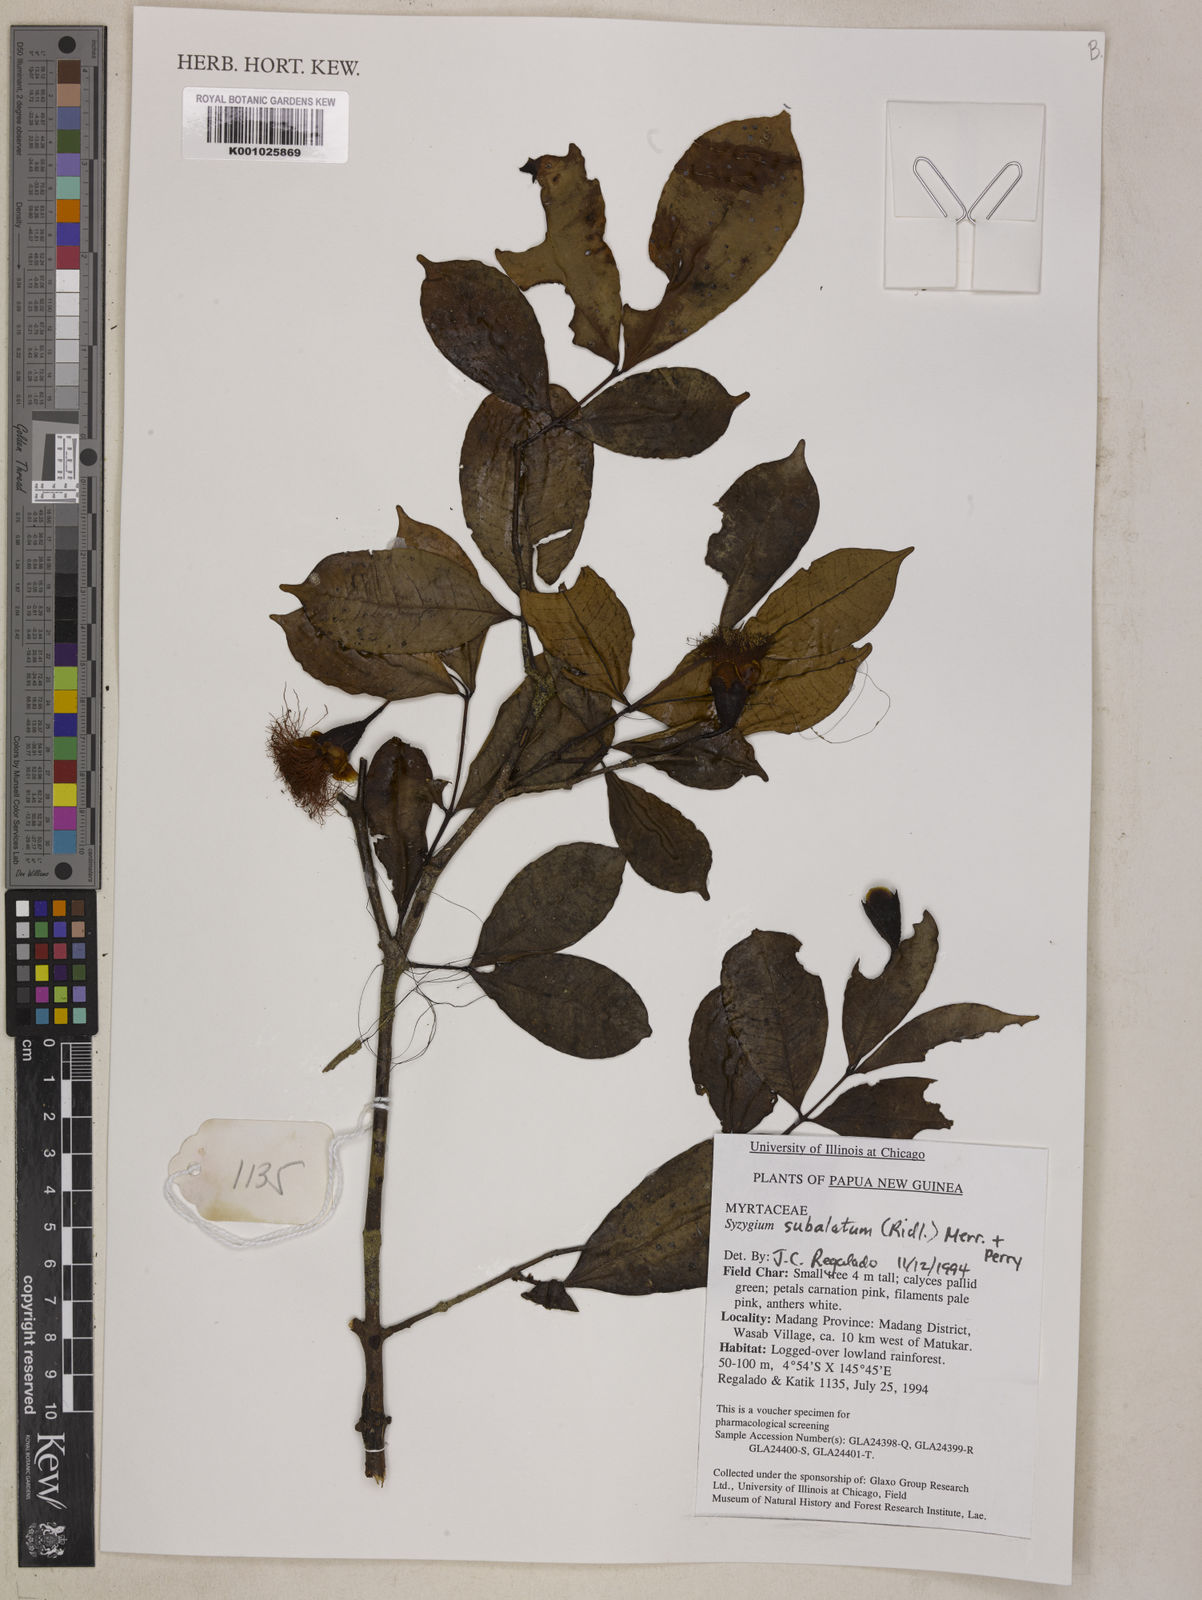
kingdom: Plantae
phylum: Tracheophyta
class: Magnoliopsida
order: Myrtales
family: Myrtaceae
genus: Syzygium
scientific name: Syzygium subalatum
